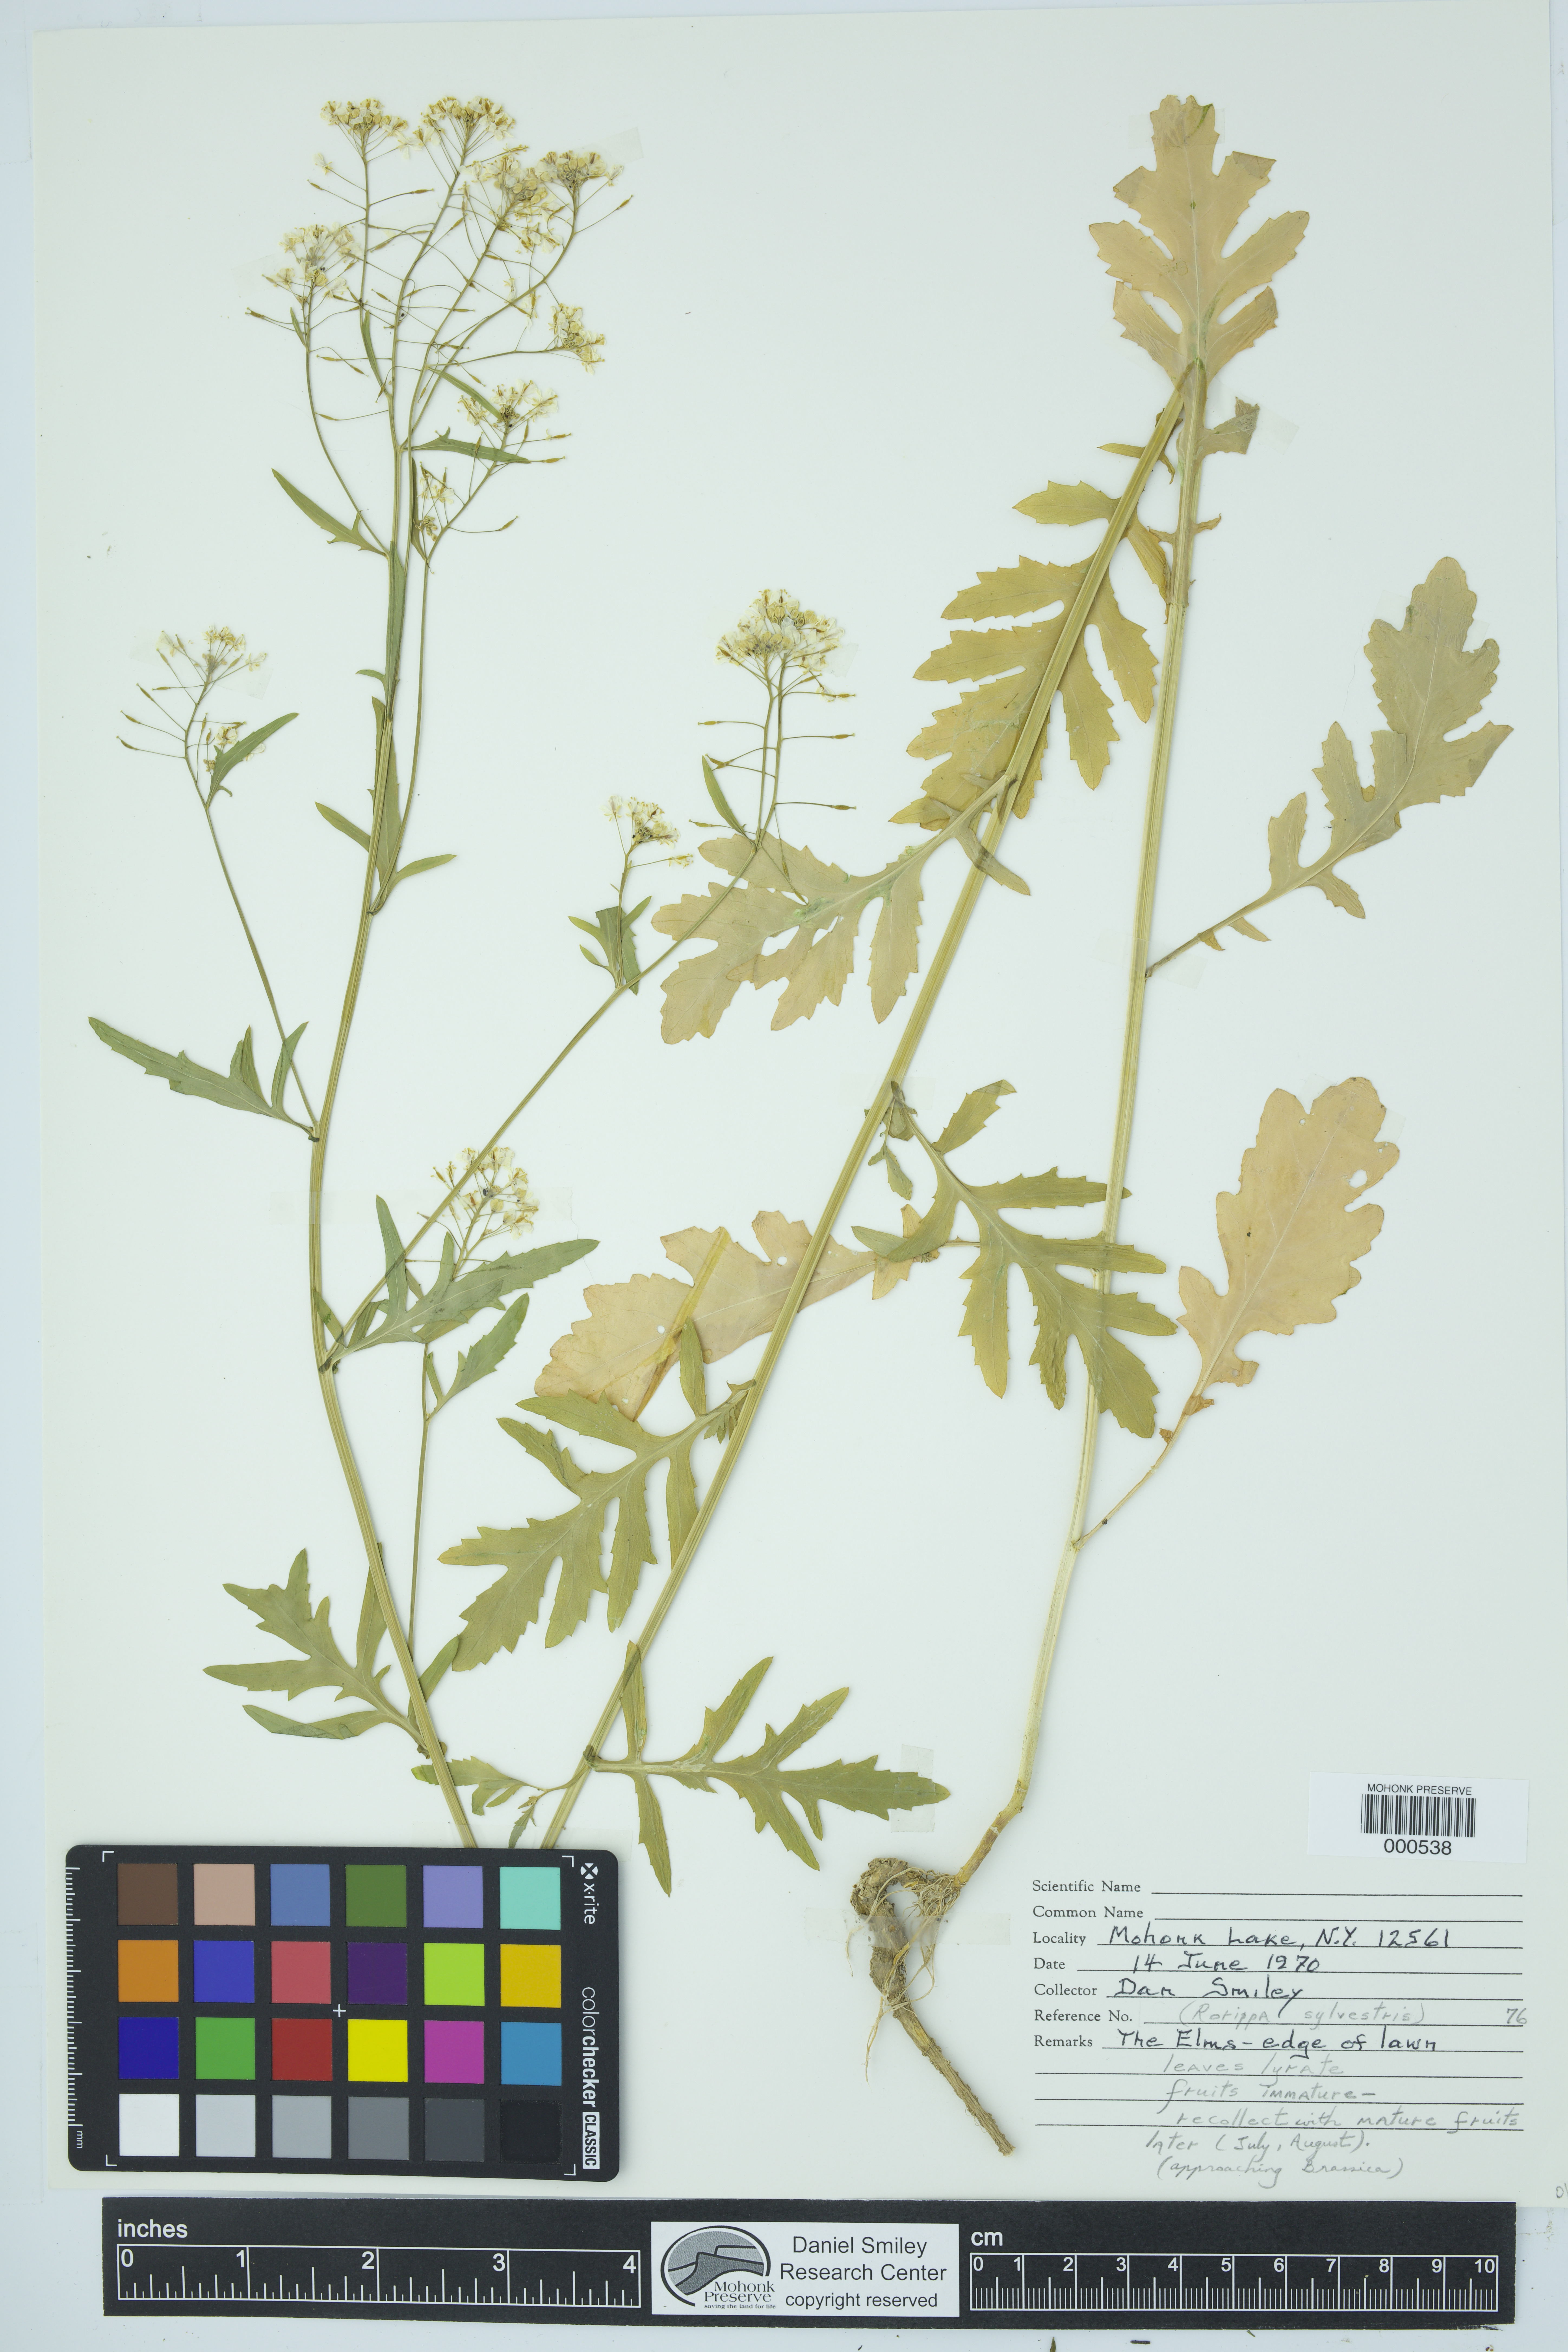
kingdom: Plantae
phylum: Tracheophyta
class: Magnoliopsida
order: Brassicales
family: Brassicaceae
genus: Rorippa
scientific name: Rorippa sylvestris
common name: Creeping yellowcress
